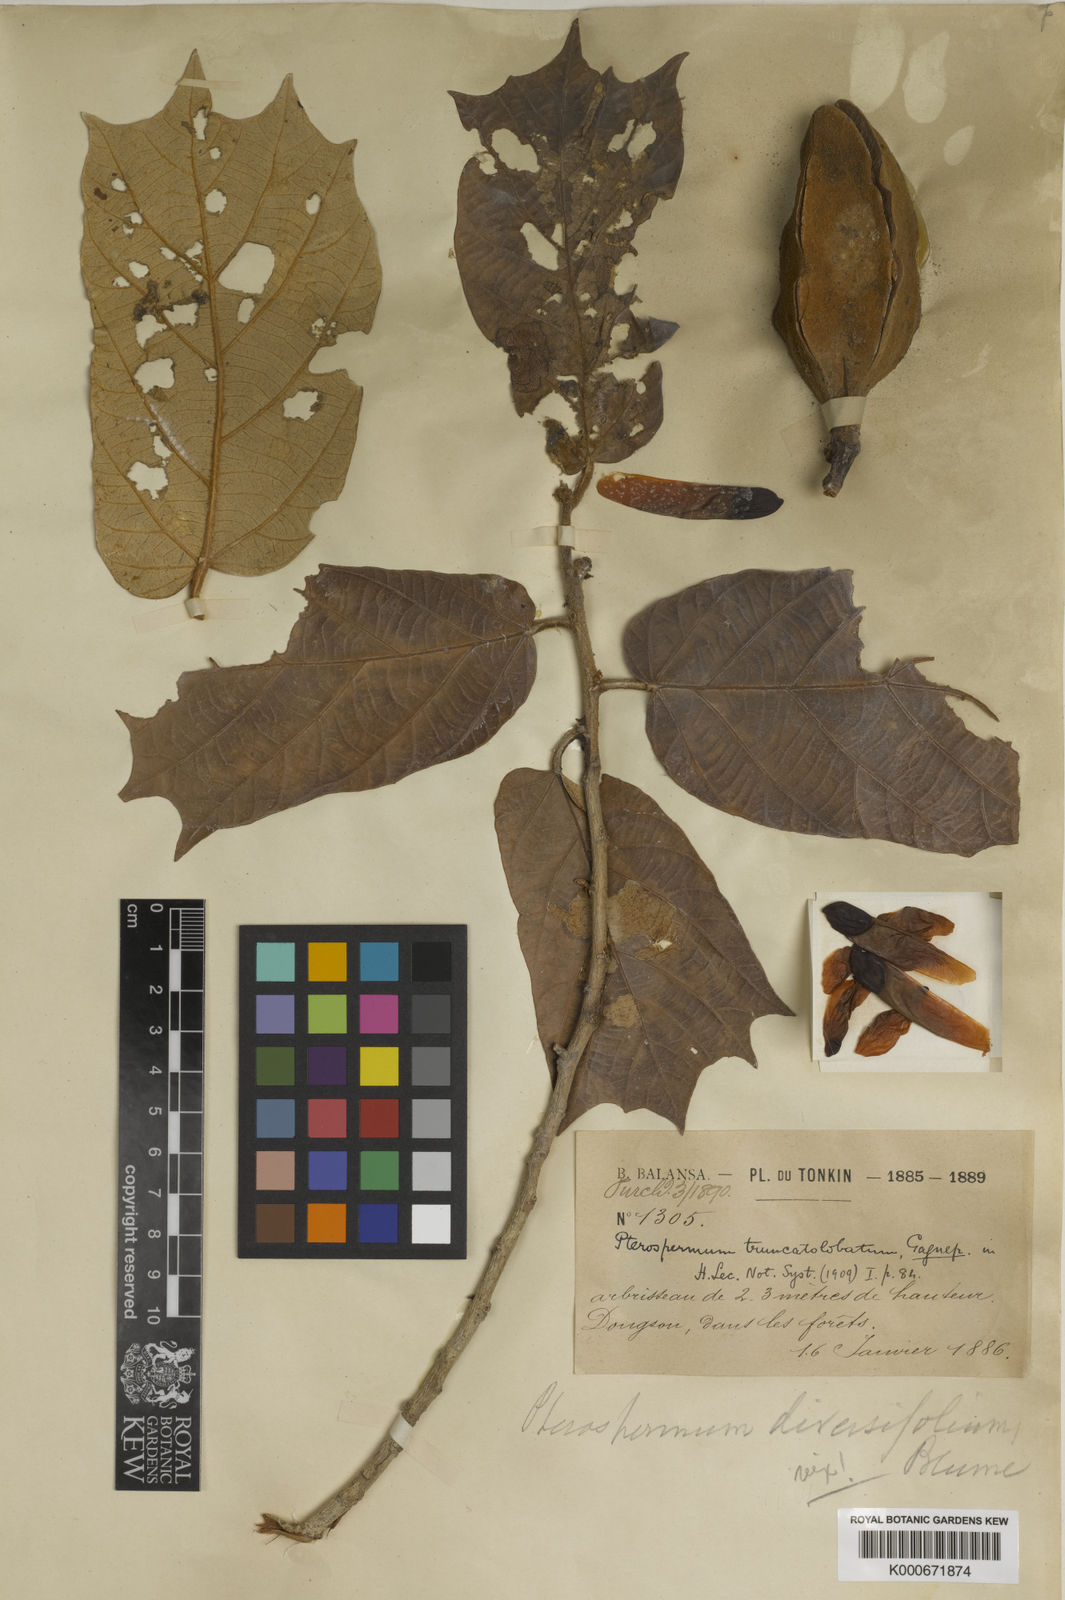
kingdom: Plantae
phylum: Tracheophyta
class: Magnoliopsida
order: Malvales
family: Malvaceae
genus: Pterospermum
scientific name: Pterospermum truncatolobatum
